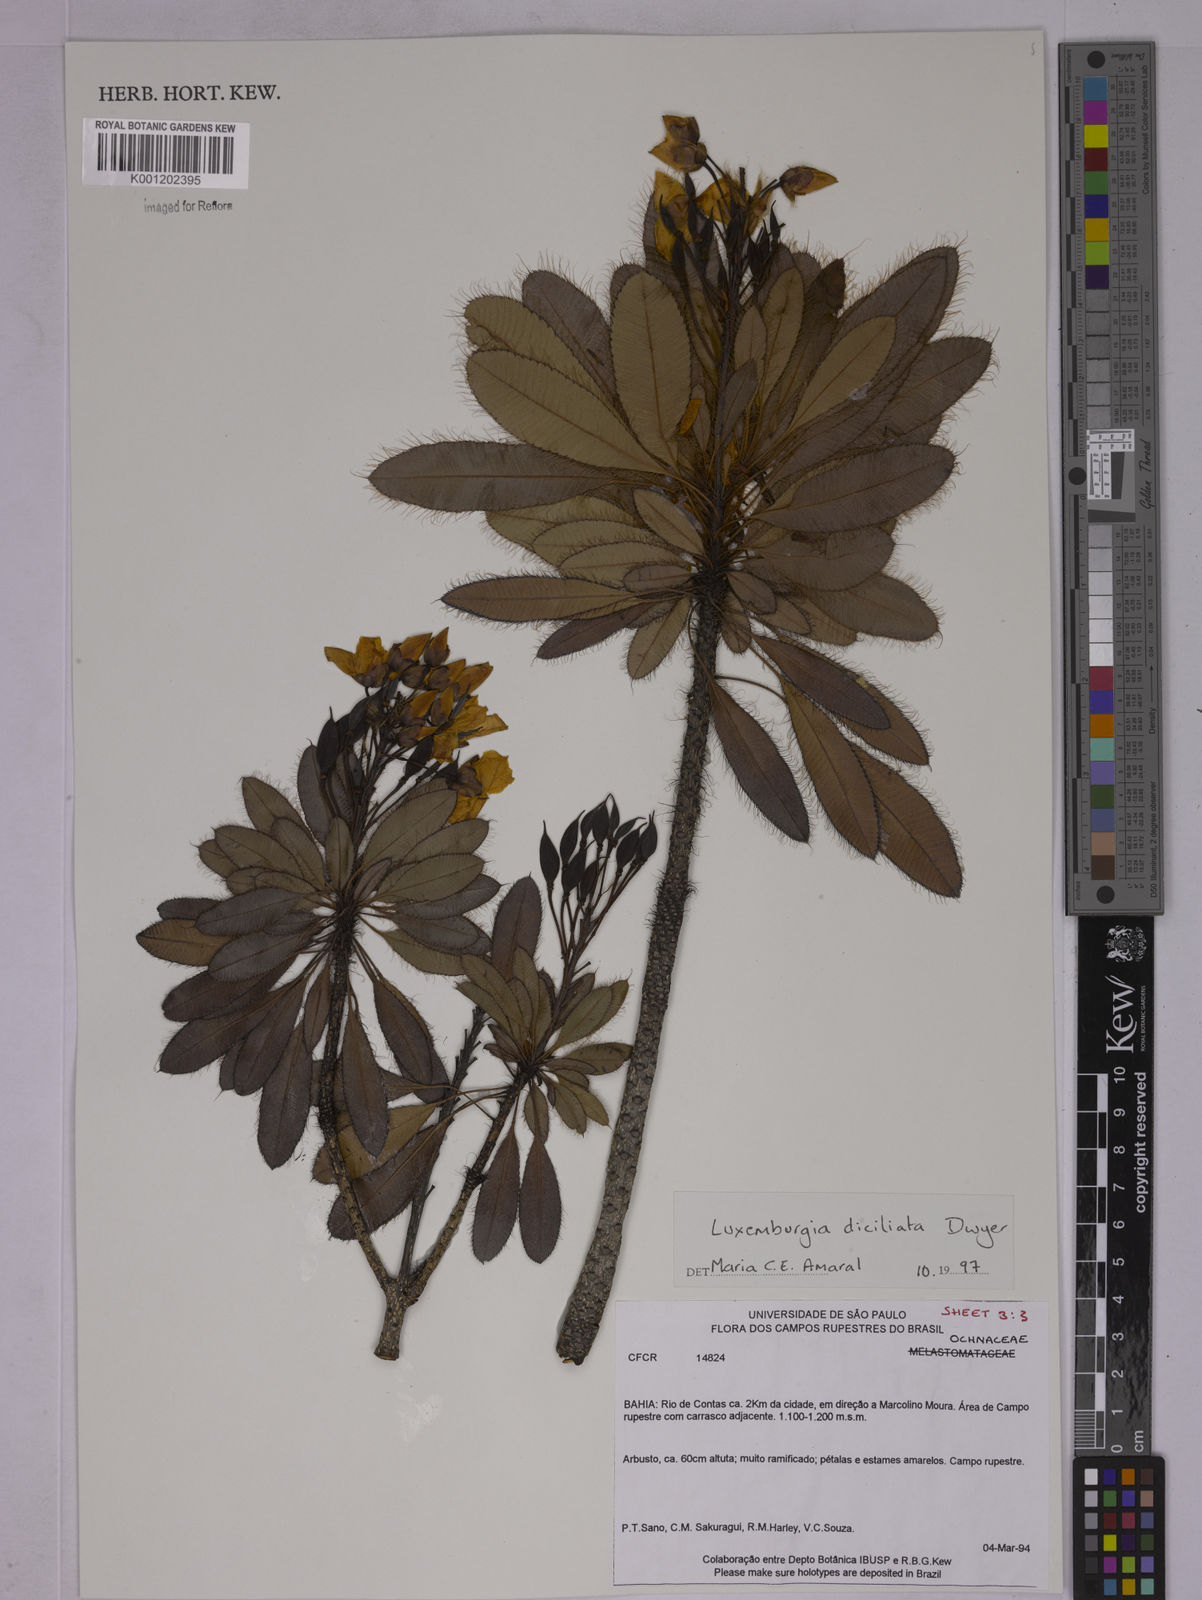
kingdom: Plantae
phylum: Tracheophyta
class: Magnoliopsida
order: Malpighiales
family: Ochnaceae
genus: Luxemburgia
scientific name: Luxemburgia diciliata
